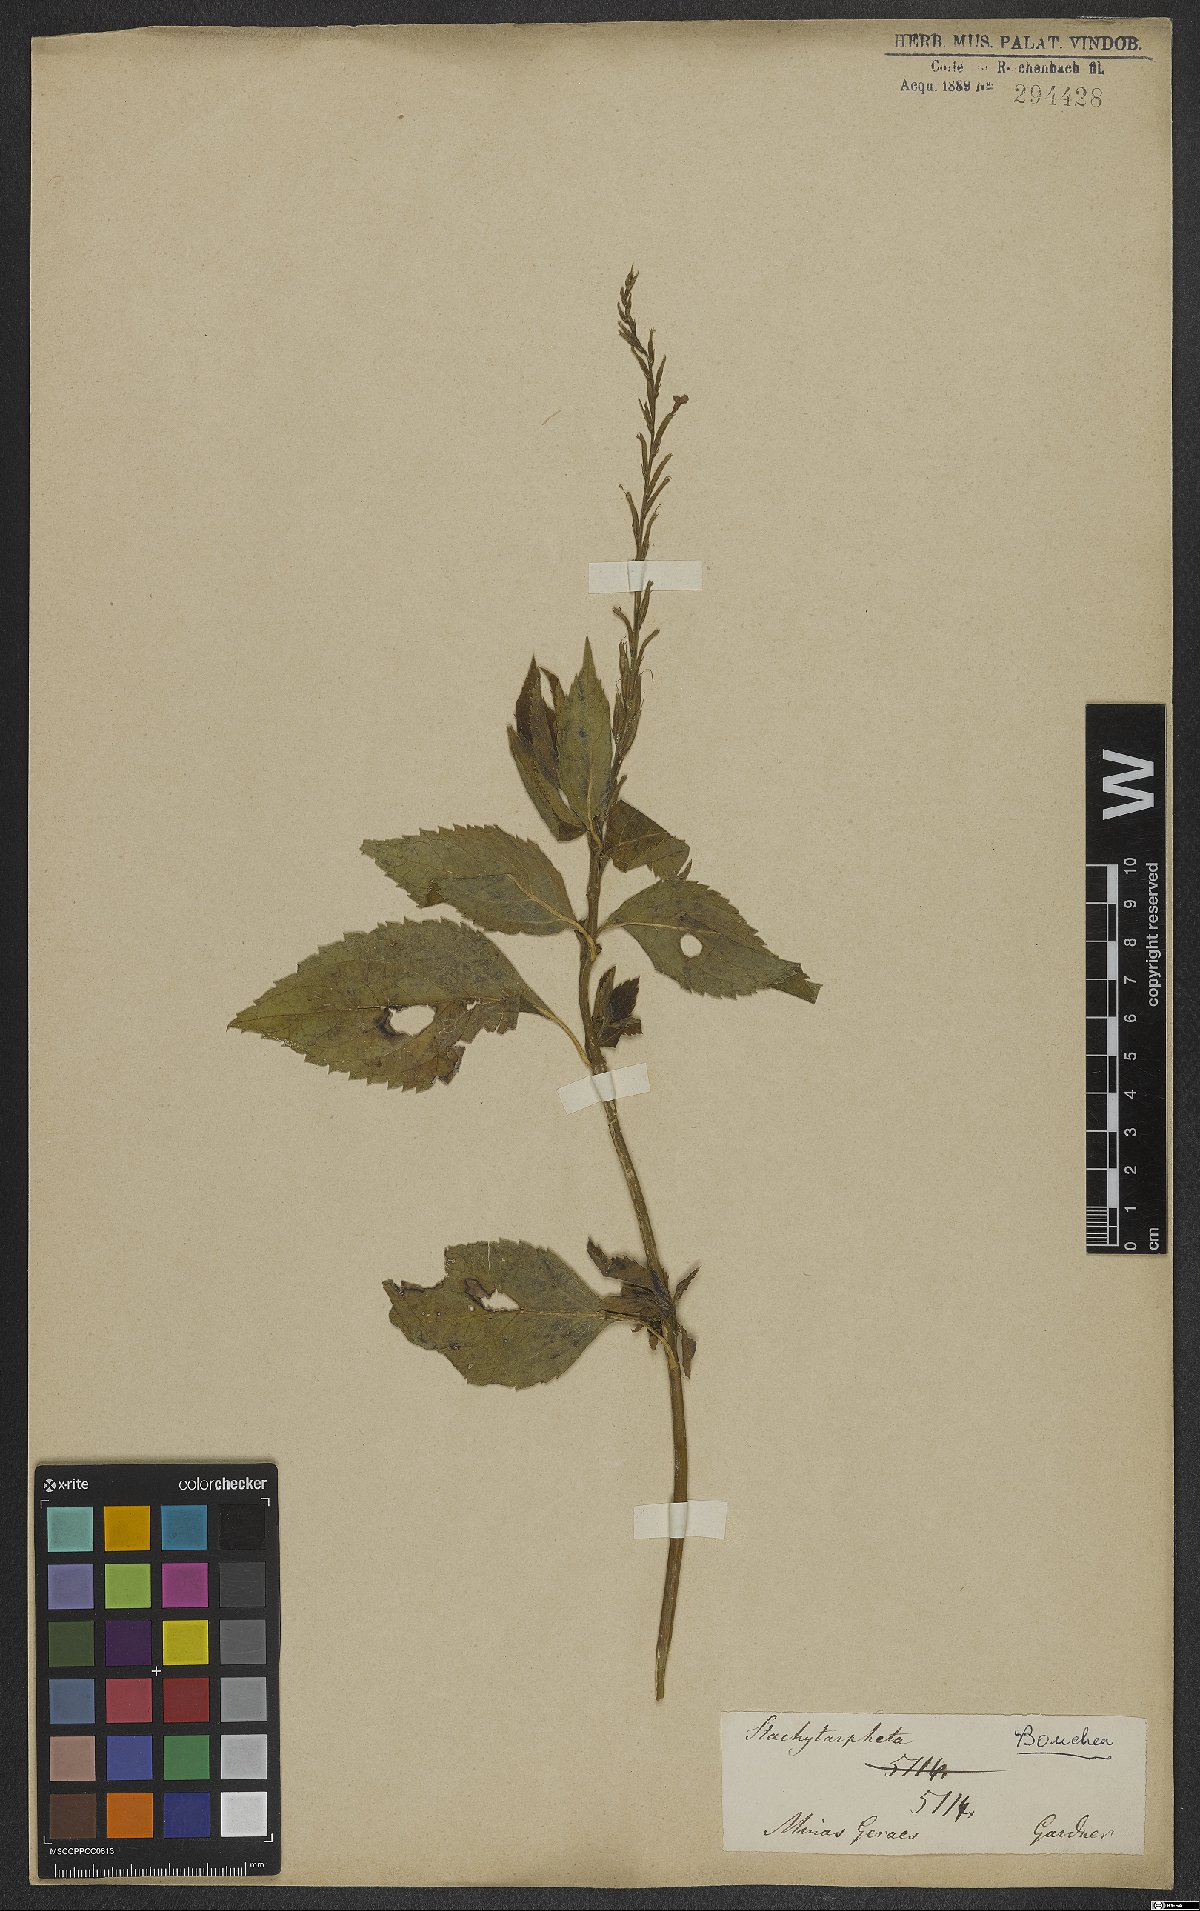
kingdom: Plantae
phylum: Tracheophyta
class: Magnoliopsida
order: Lamiales
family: Verbenaceae
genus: Bouchea
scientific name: Bouchea pseudogervao
